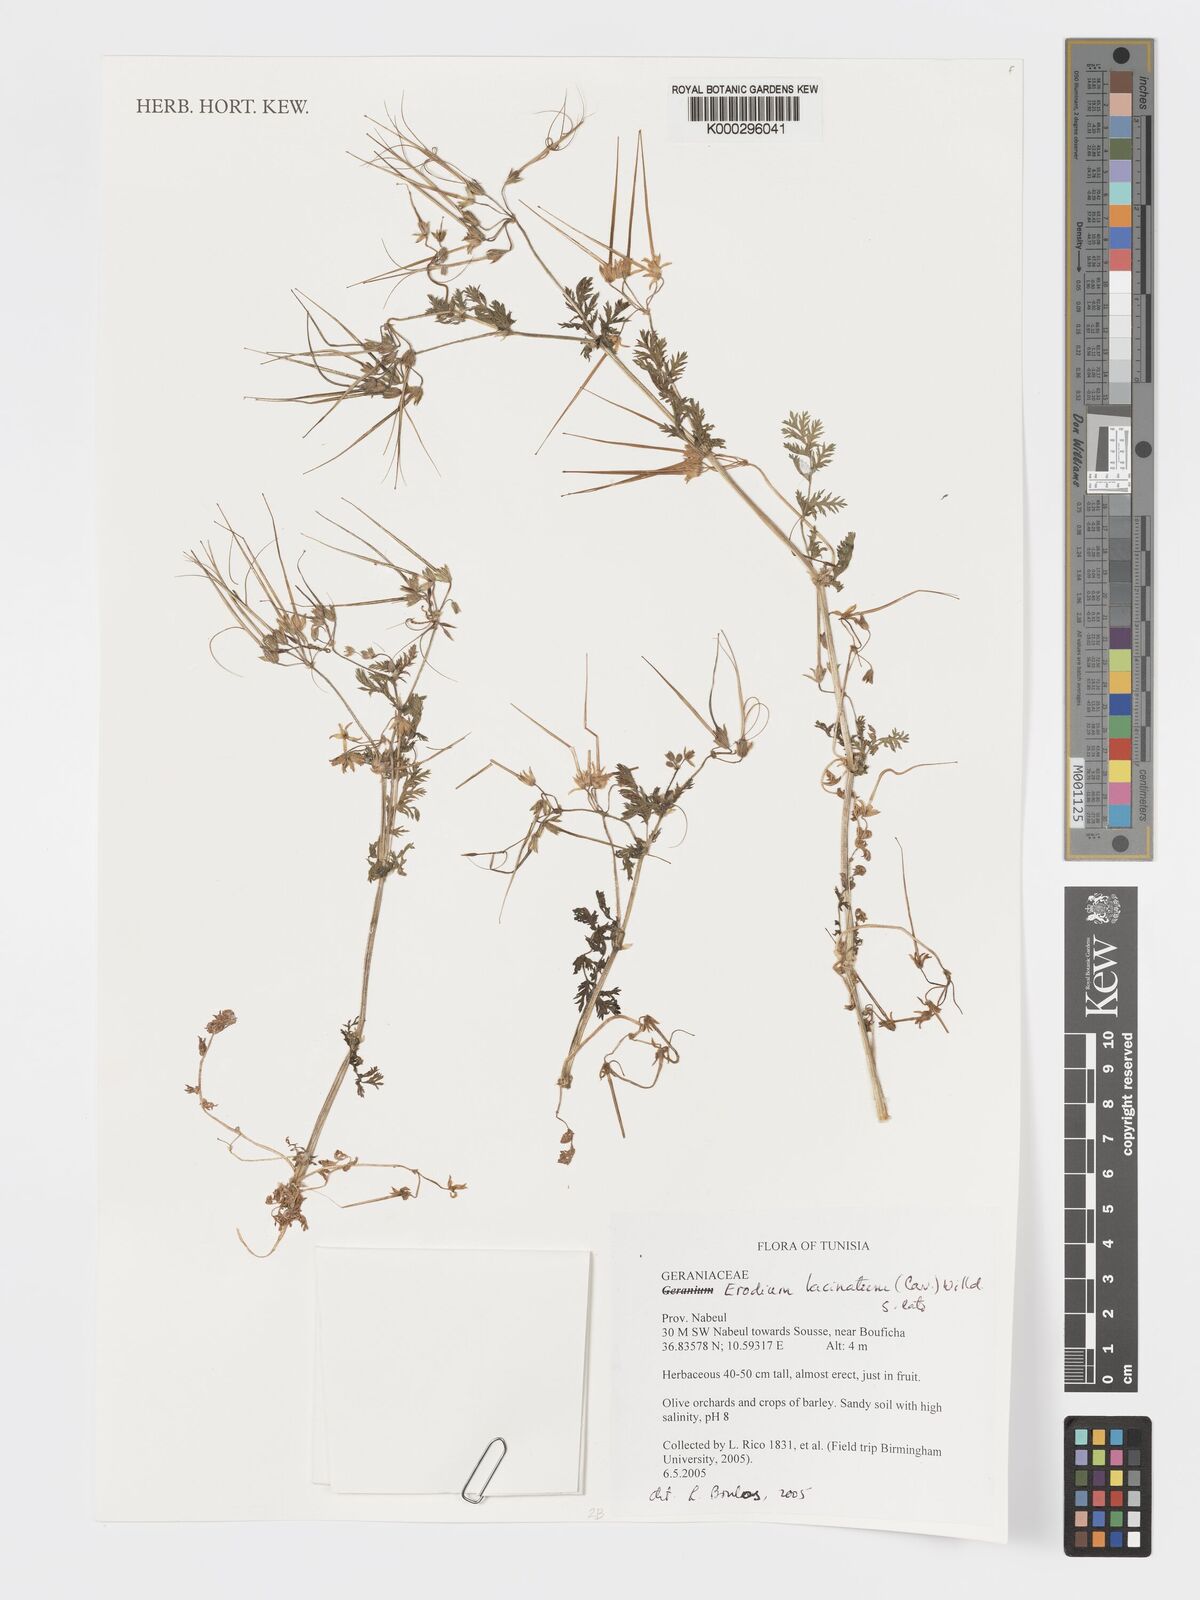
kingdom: Plantae
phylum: Tracheophyta
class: Magnoliopsida
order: Geraniales
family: Geraniaceae
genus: Erodium
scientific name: Erodium cicutarium
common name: Common stork's-bill
